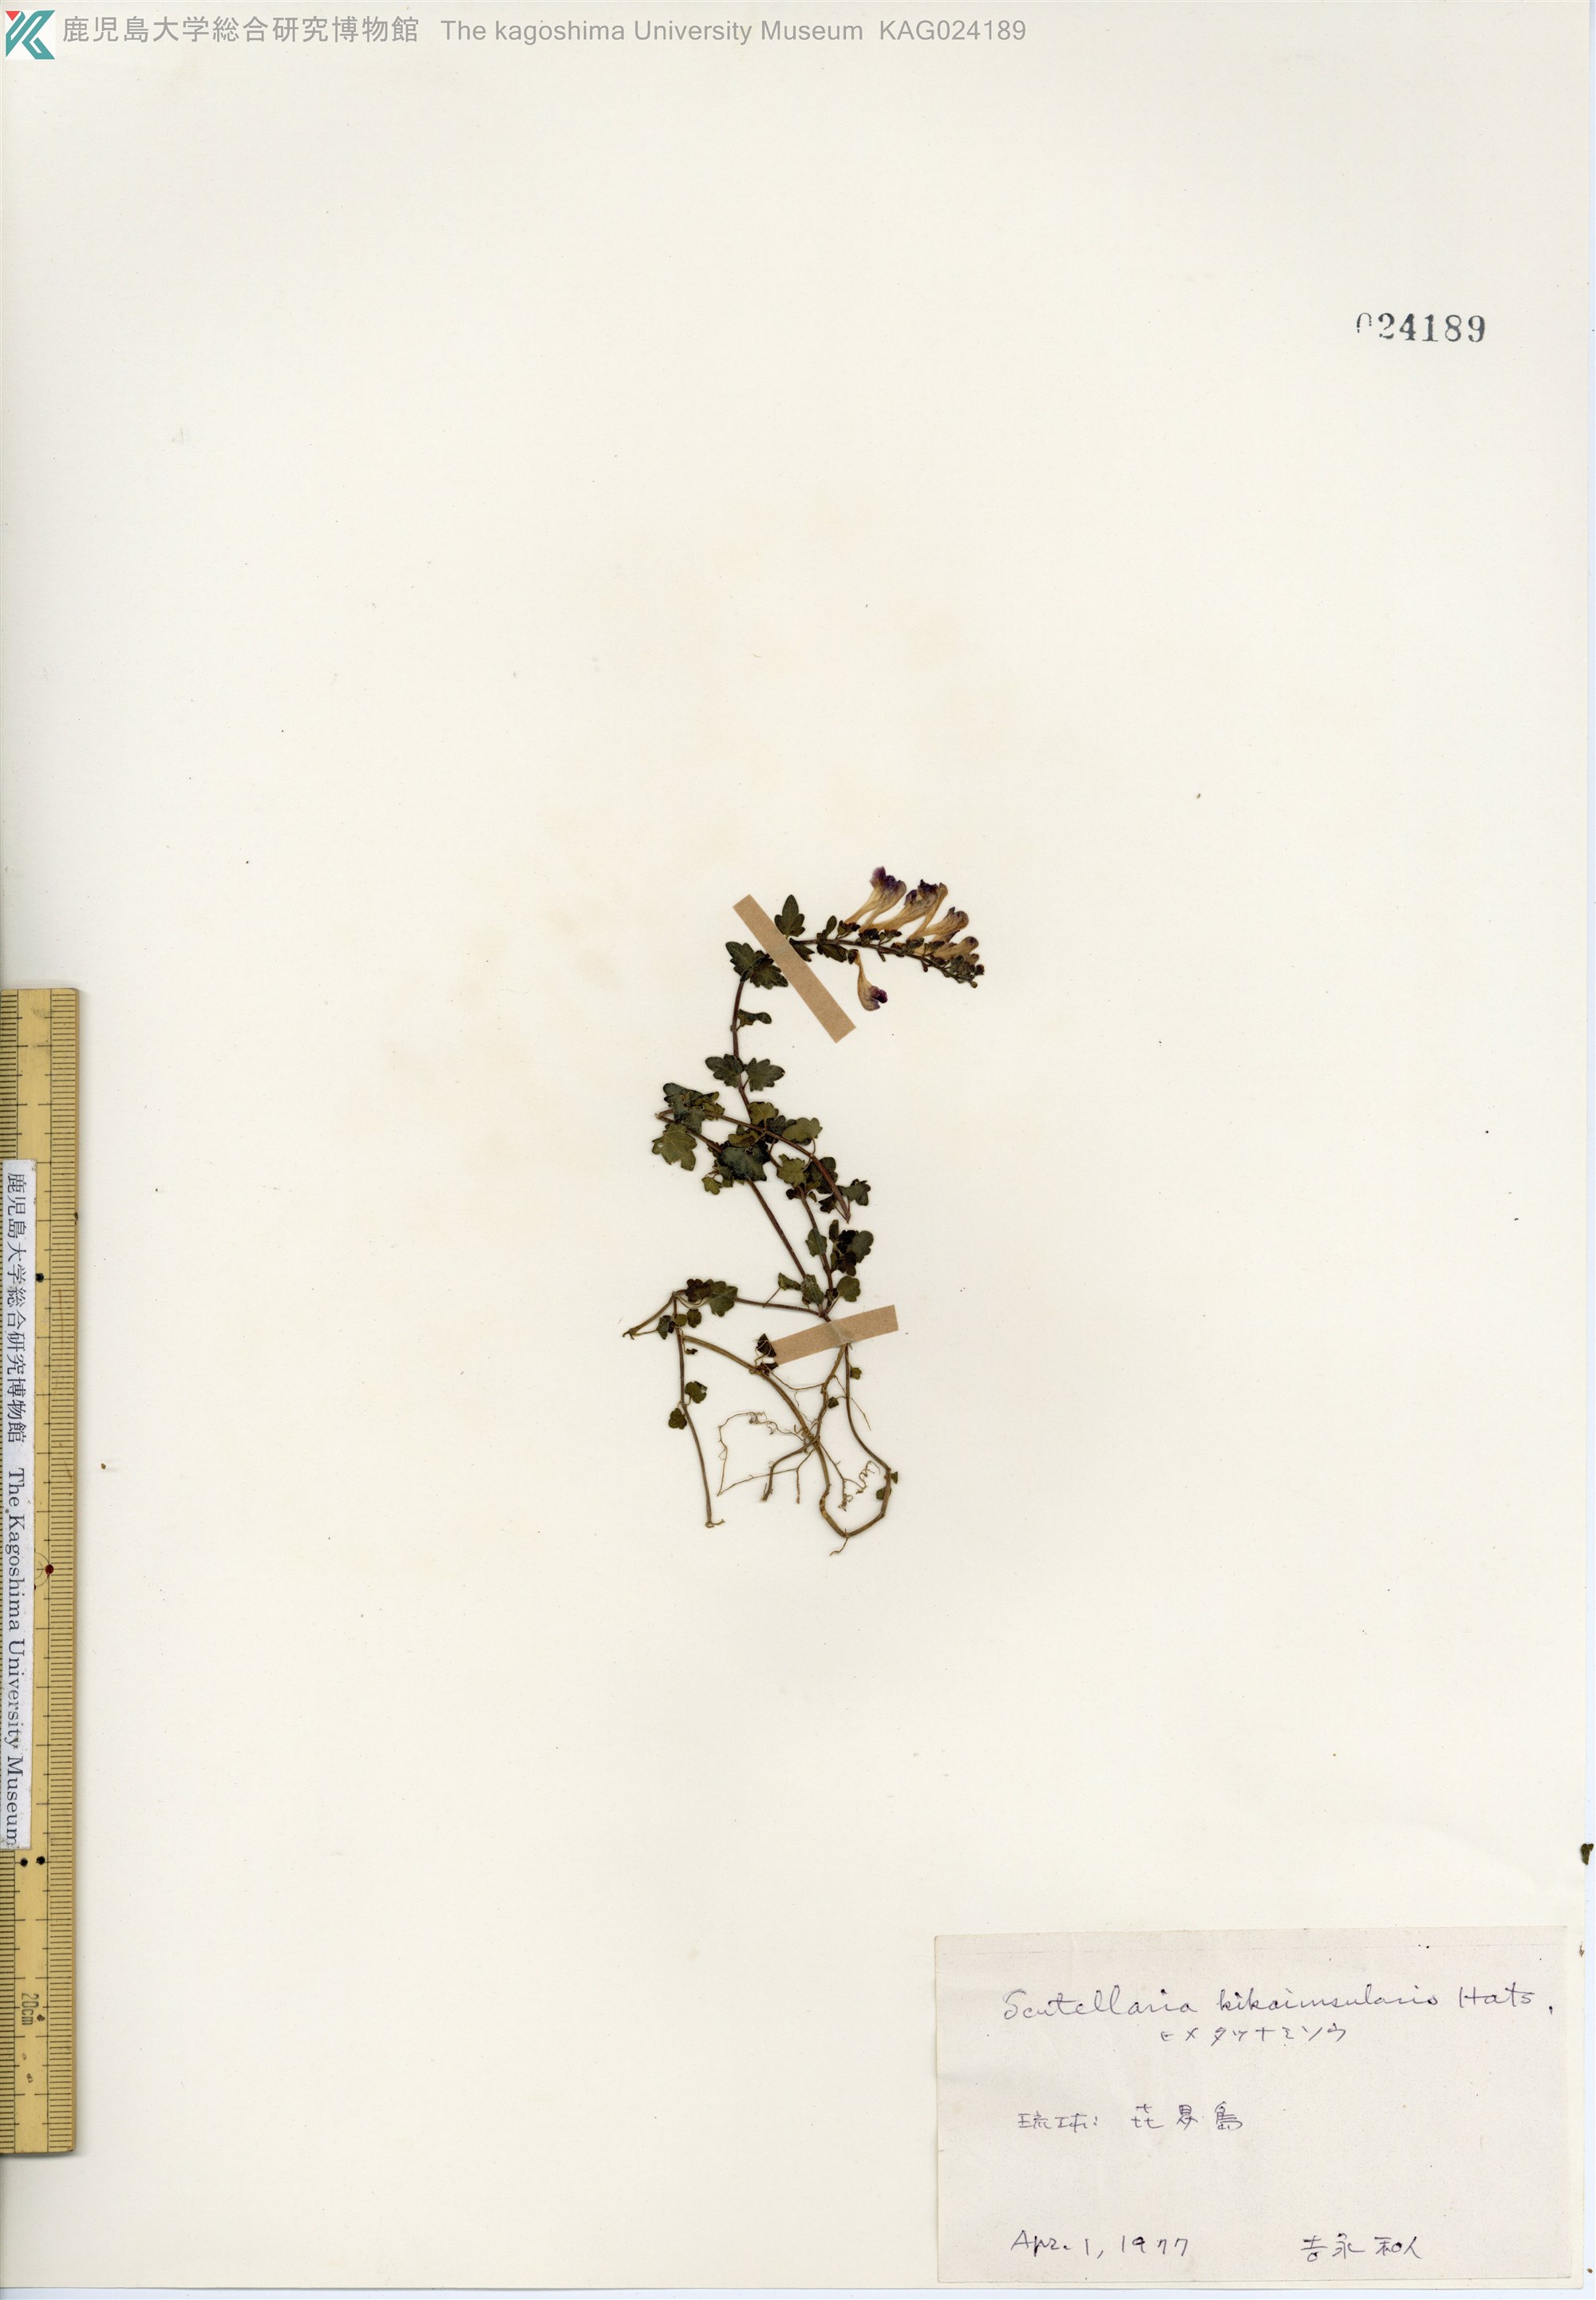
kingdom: Plantae
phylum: Tracheophyta
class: Magnoliopsida
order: Lamiales
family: Lamiaceae
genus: Scutellaria
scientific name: Scutellaria kikai-insularis
